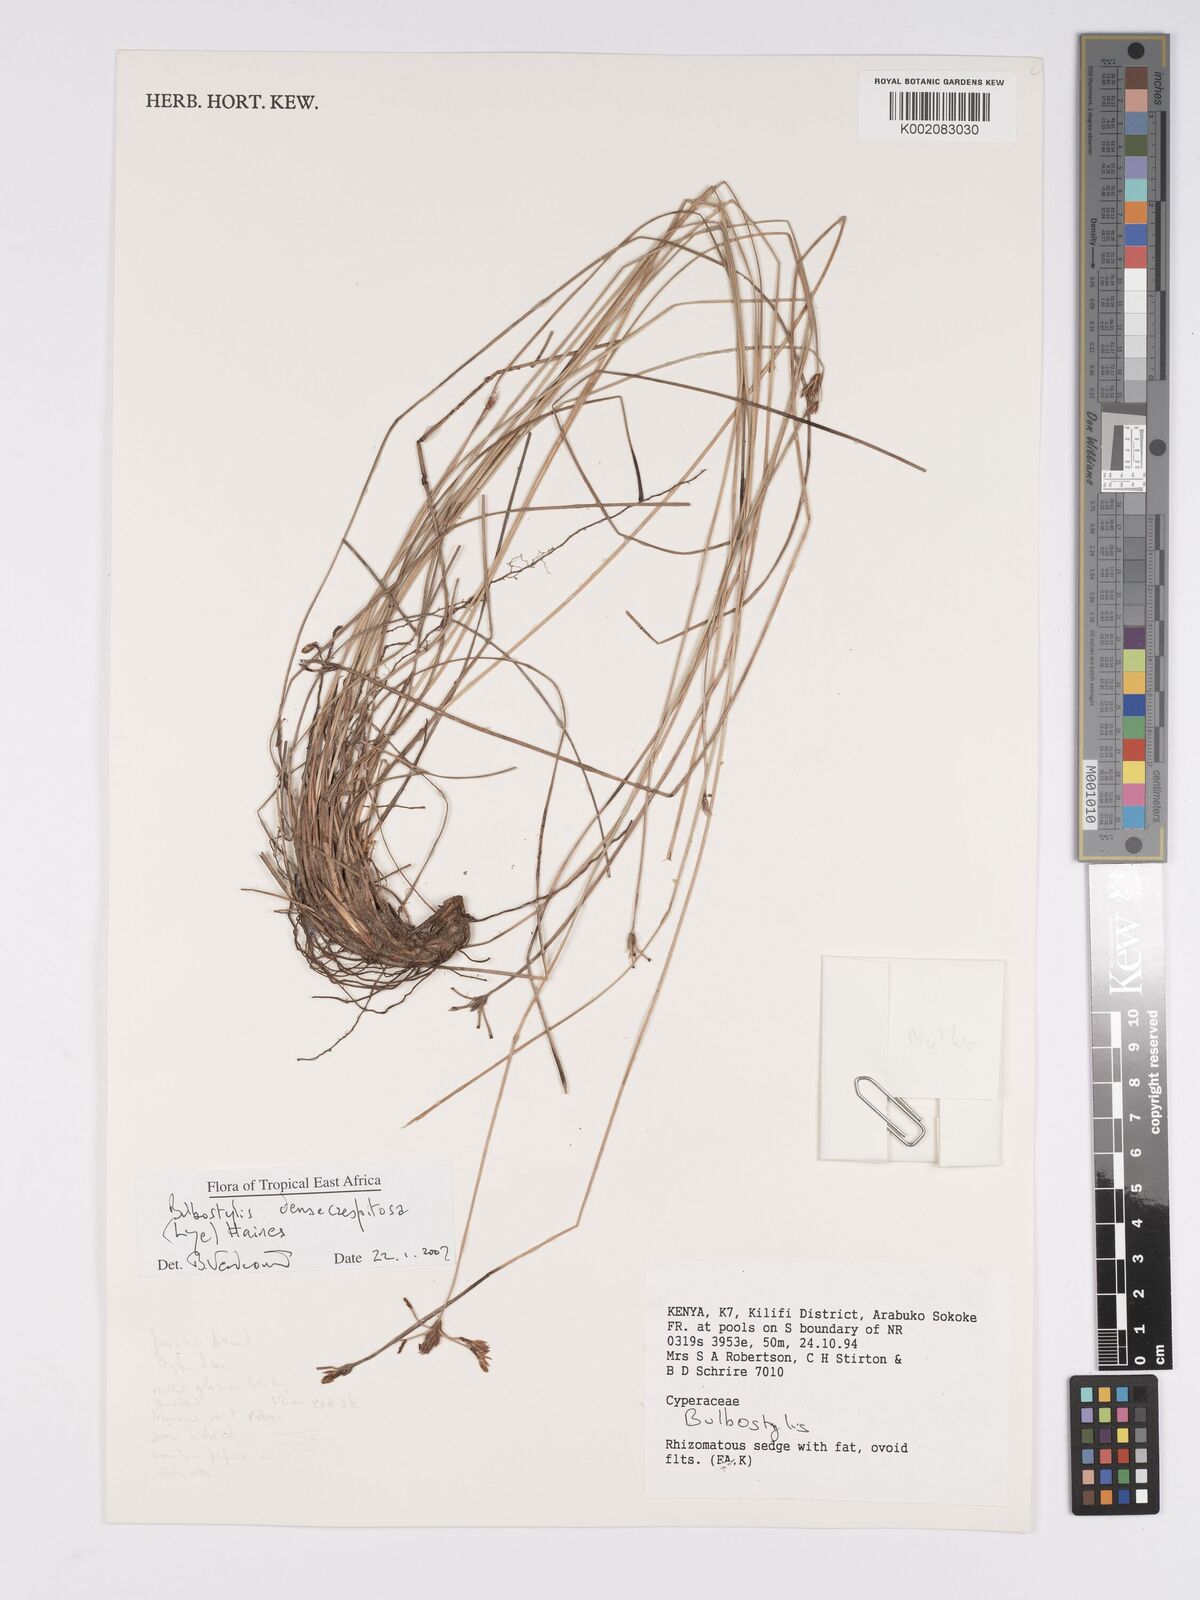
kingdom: Plantae
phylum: Tracheophyta
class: Liliopsida
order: Poales
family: Cyperaceae
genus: Bulbostylis
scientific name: Bulbostylis densicaespitosa
